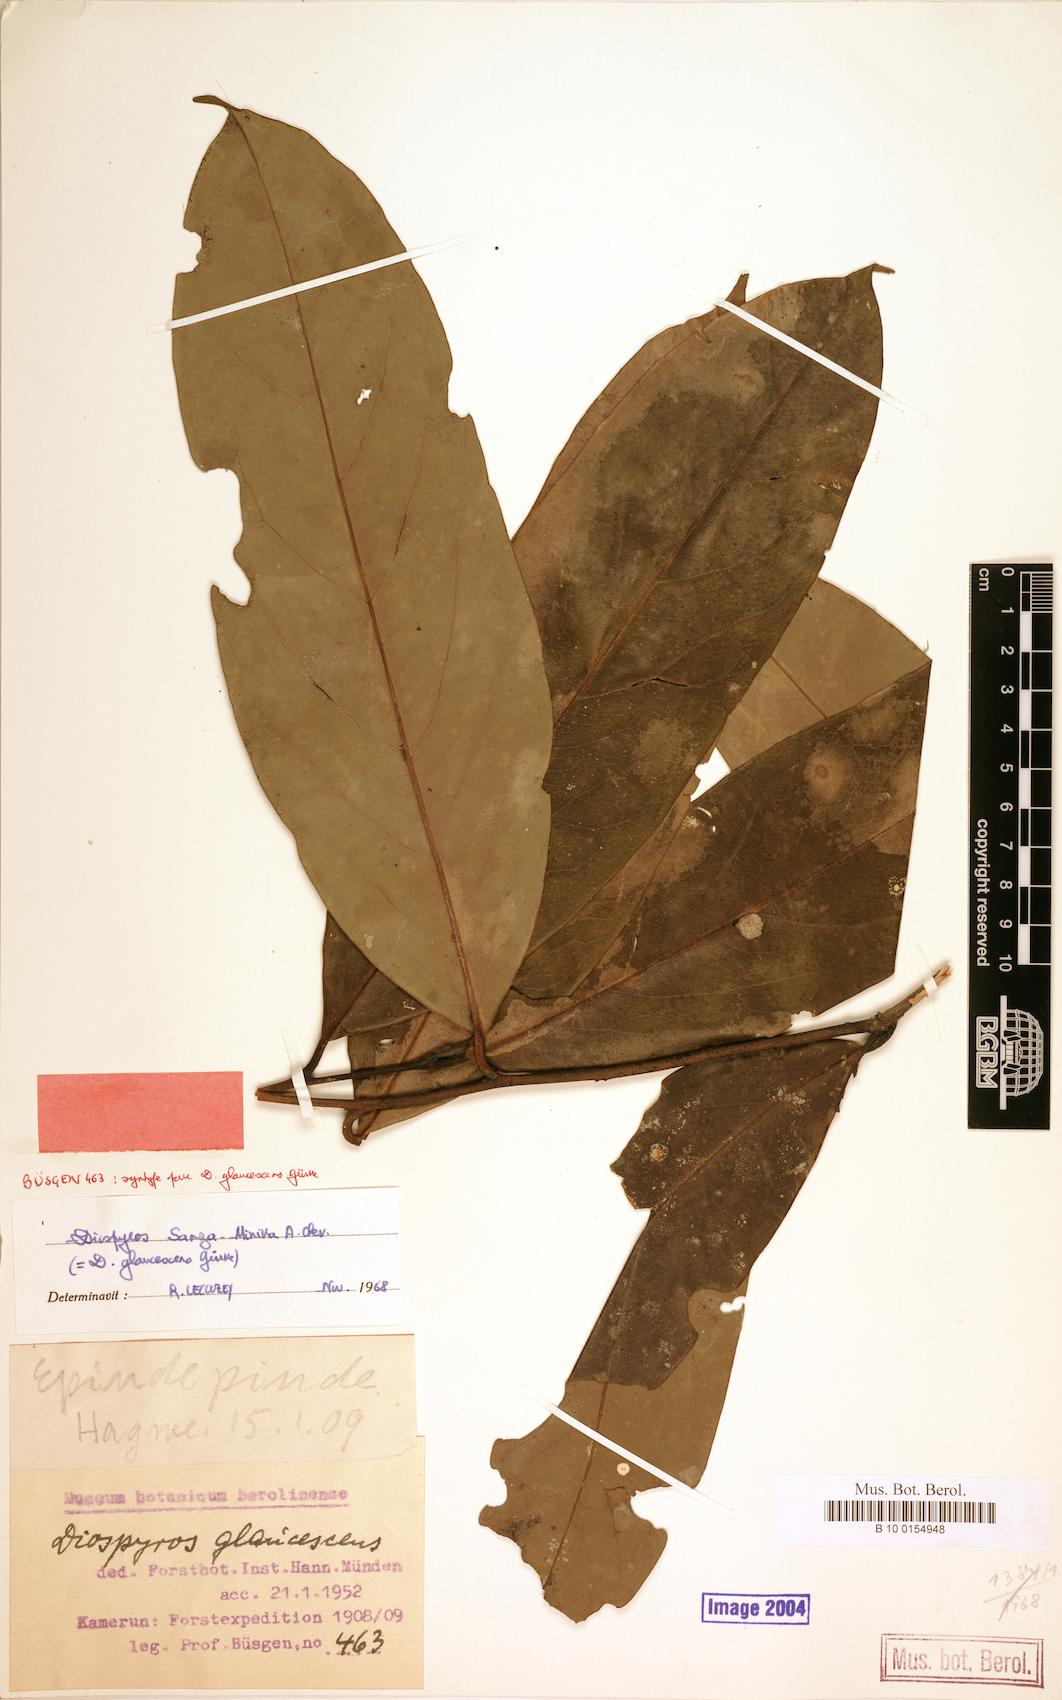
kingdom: Plantae
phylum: Tracheophyta
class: Magnoliopsida
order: Ericales
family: Ebenaceae
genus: Diospyros
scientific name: Diospyros sanza-minika
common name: Flint bark
